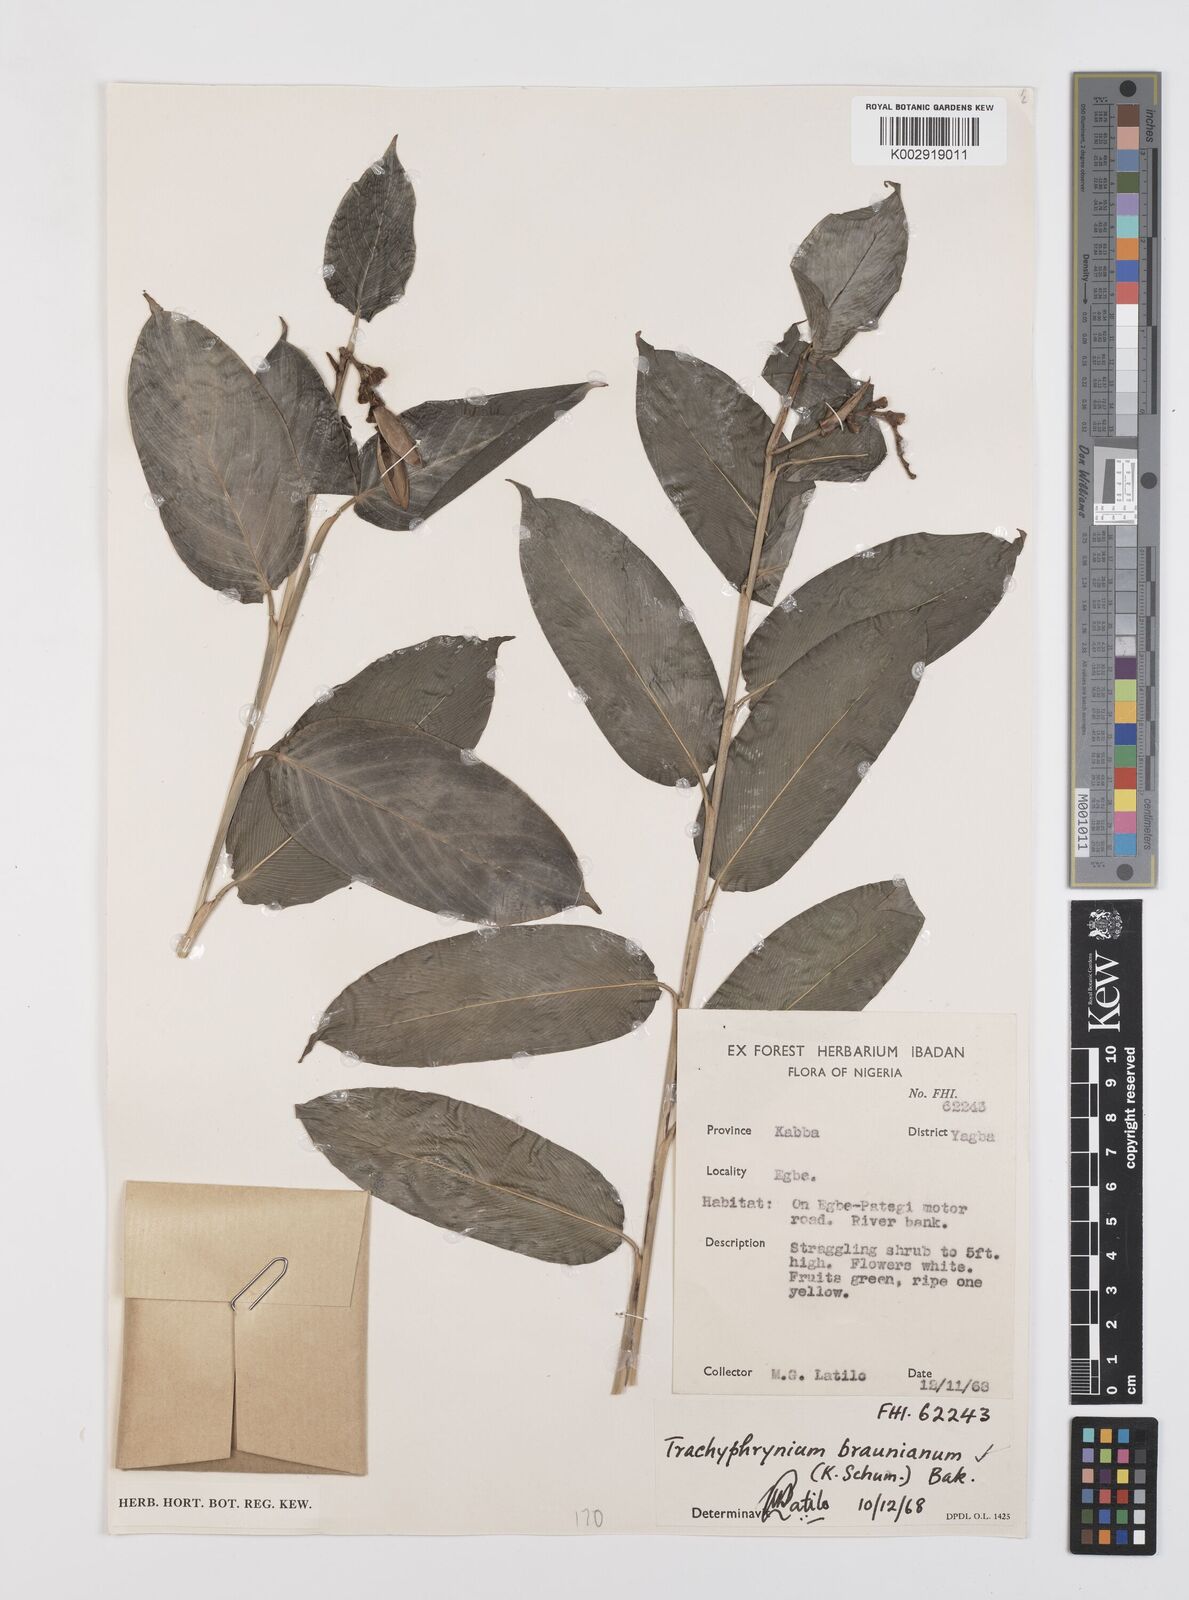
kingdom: Plantae
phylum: Tracheophyta
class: Liliopsida
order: Zingiberales
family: Marantaceae
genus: Trachyphrynium
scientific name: Trachyphrynium braunianum
